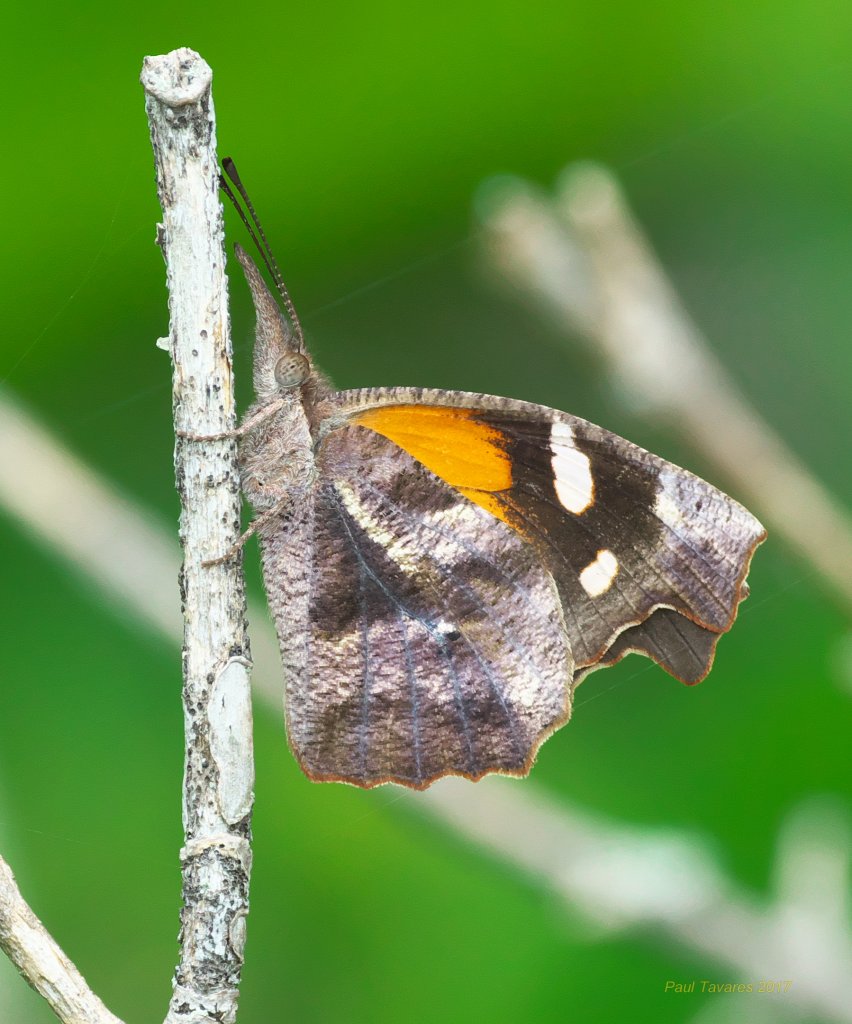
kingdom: Animalia
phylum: Arthropoda
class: Insecta
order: Lepidoptera
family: Nymphalidae
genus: Libytheana
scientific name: Libytheana carinenta
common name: American Snout
